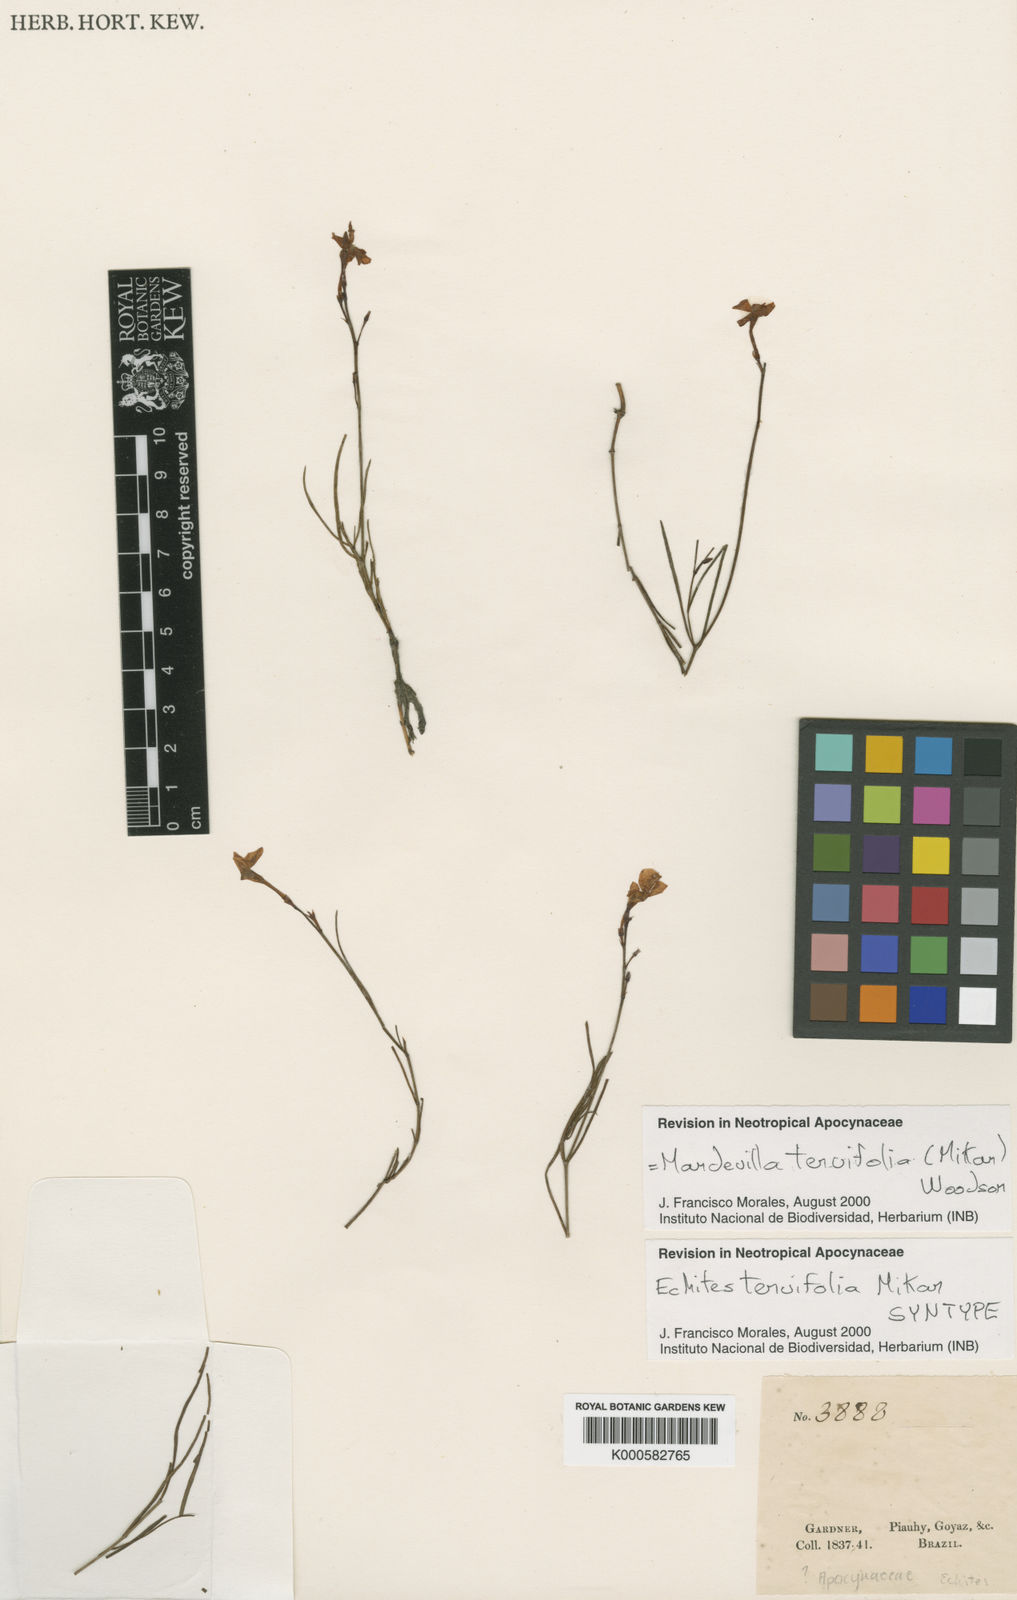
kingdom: Plantae
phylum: Tracheophyta
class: Magnoliopsida
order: Gentianales
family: Apocynaceae
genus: Mandevilla
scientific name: Mandevilla tenuifolia
